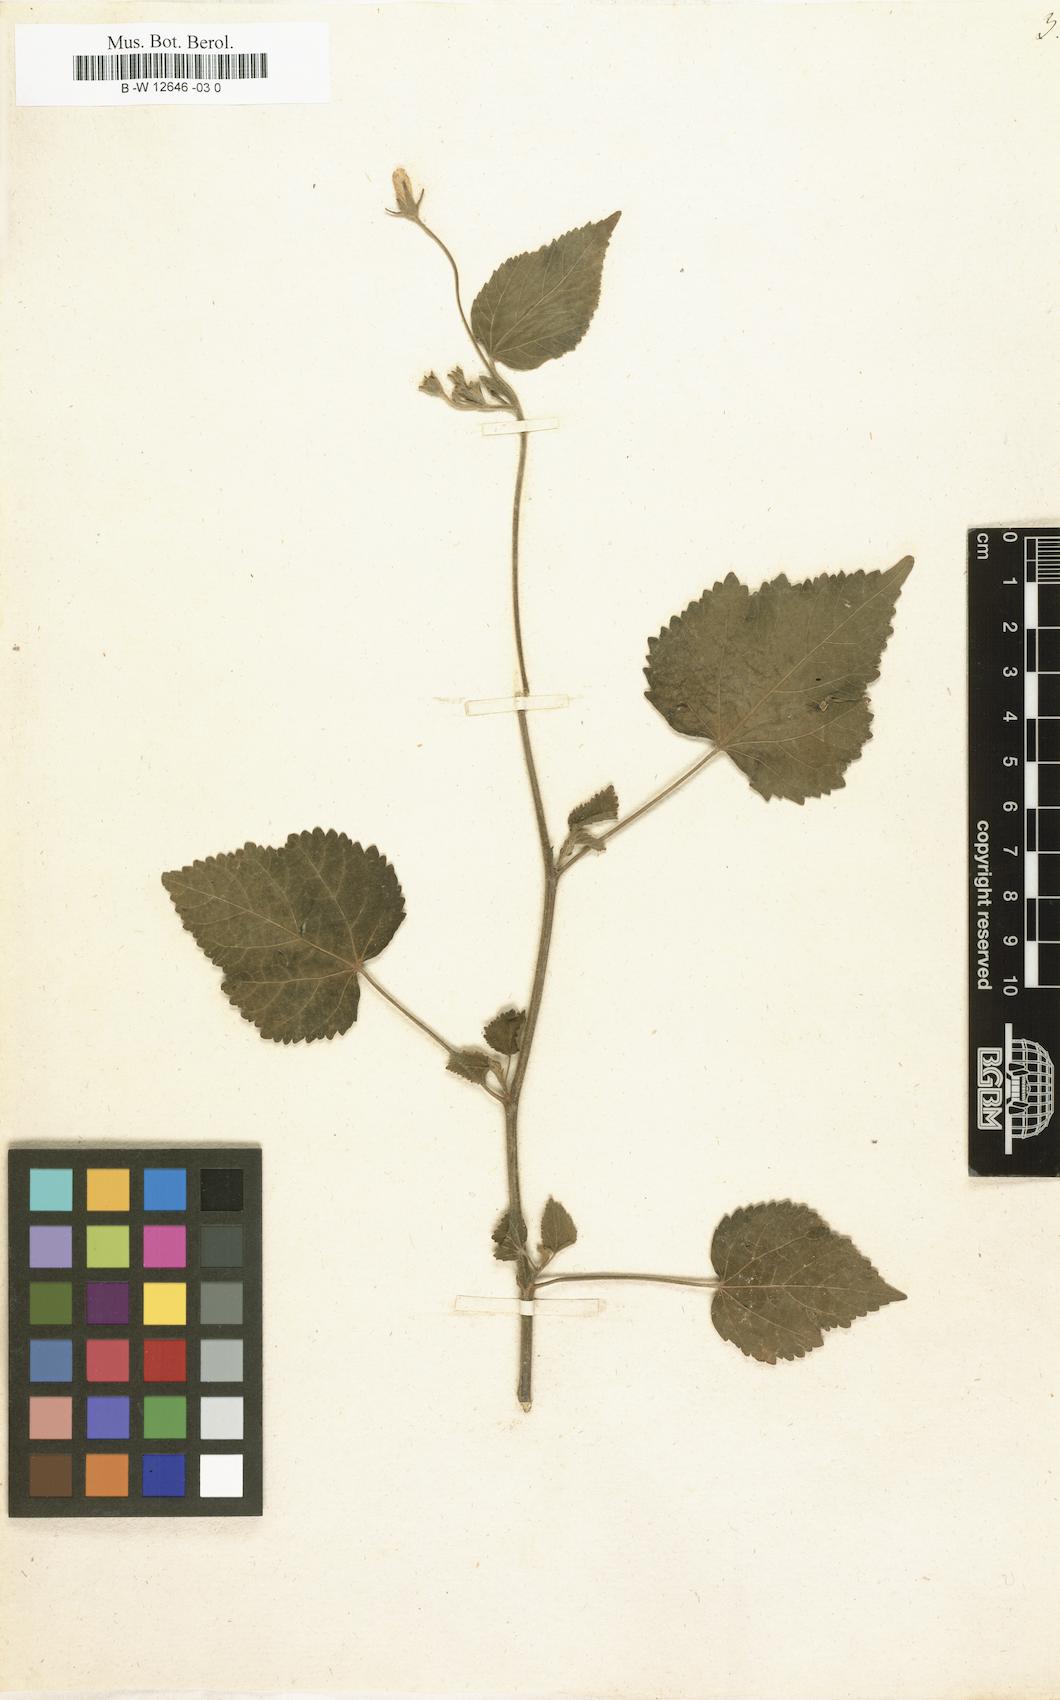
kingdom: Plantae
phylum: Tracheophyta
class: Magnoliopsida
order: Malvales
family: Malvaceae
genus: Lagunaea
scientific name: Lagunaea
